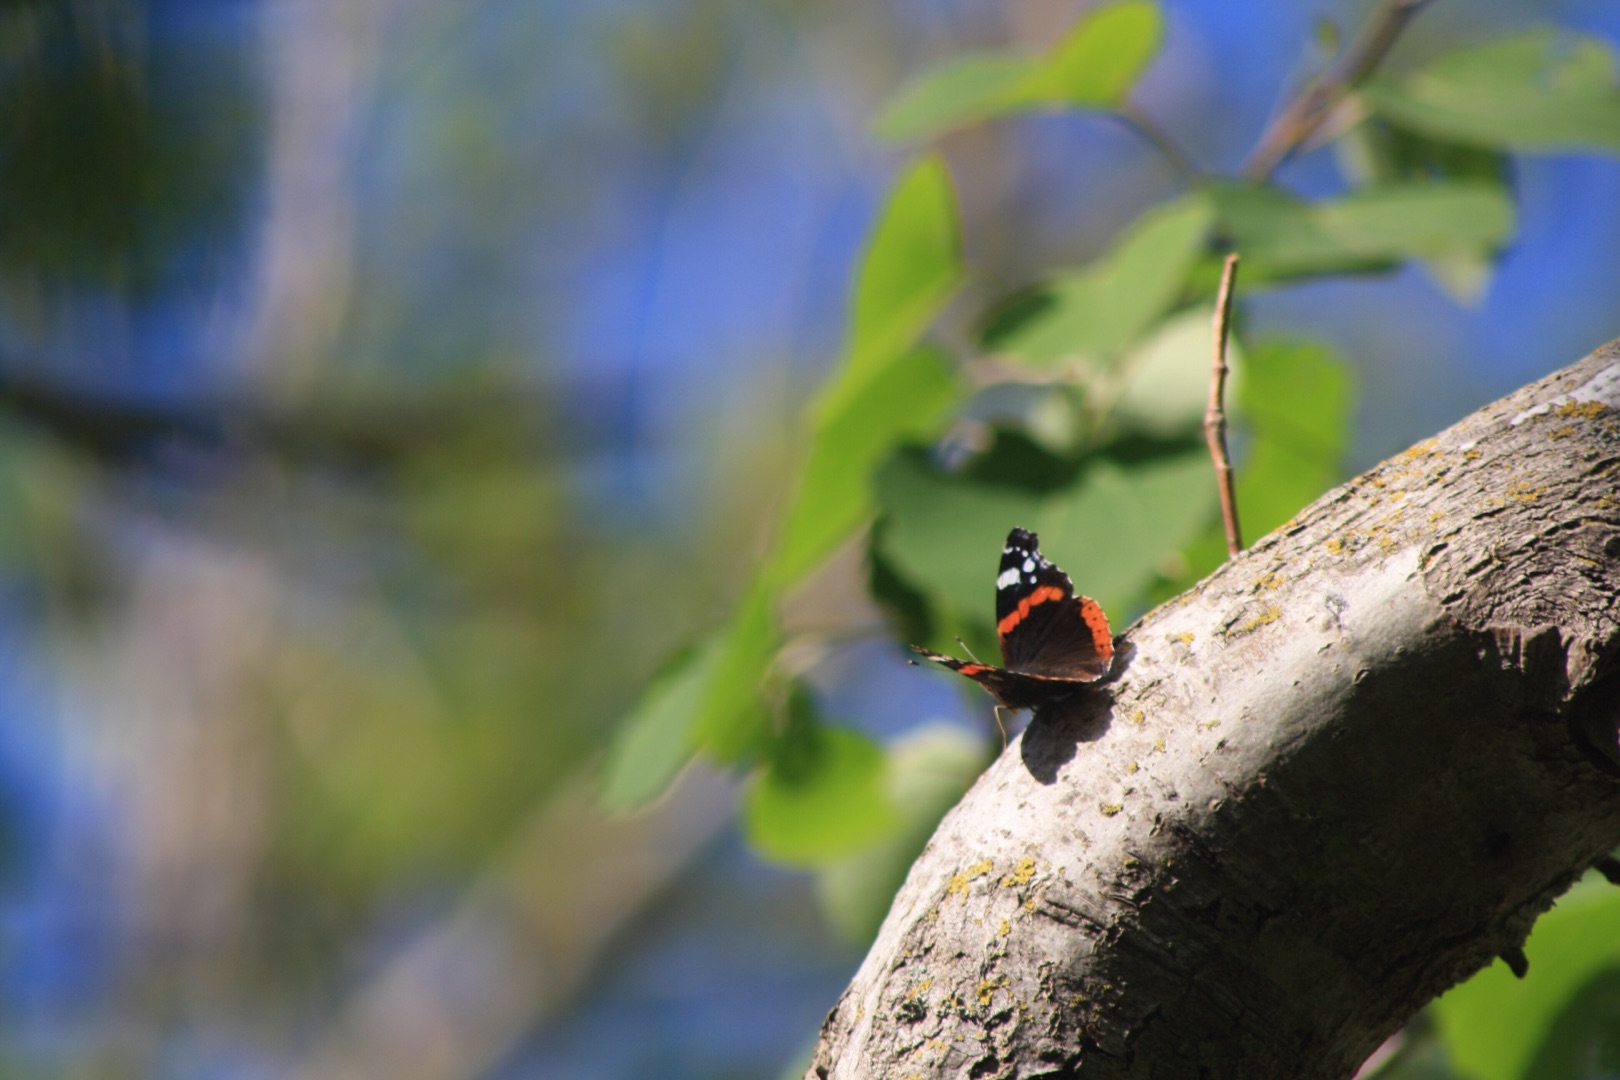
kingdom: Animalia
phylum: Arthropoda
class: Insecta
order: Lepidoptera
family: Nymphalidae
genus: Vanessa
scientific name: Vanessa atalanta
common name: Admiral
